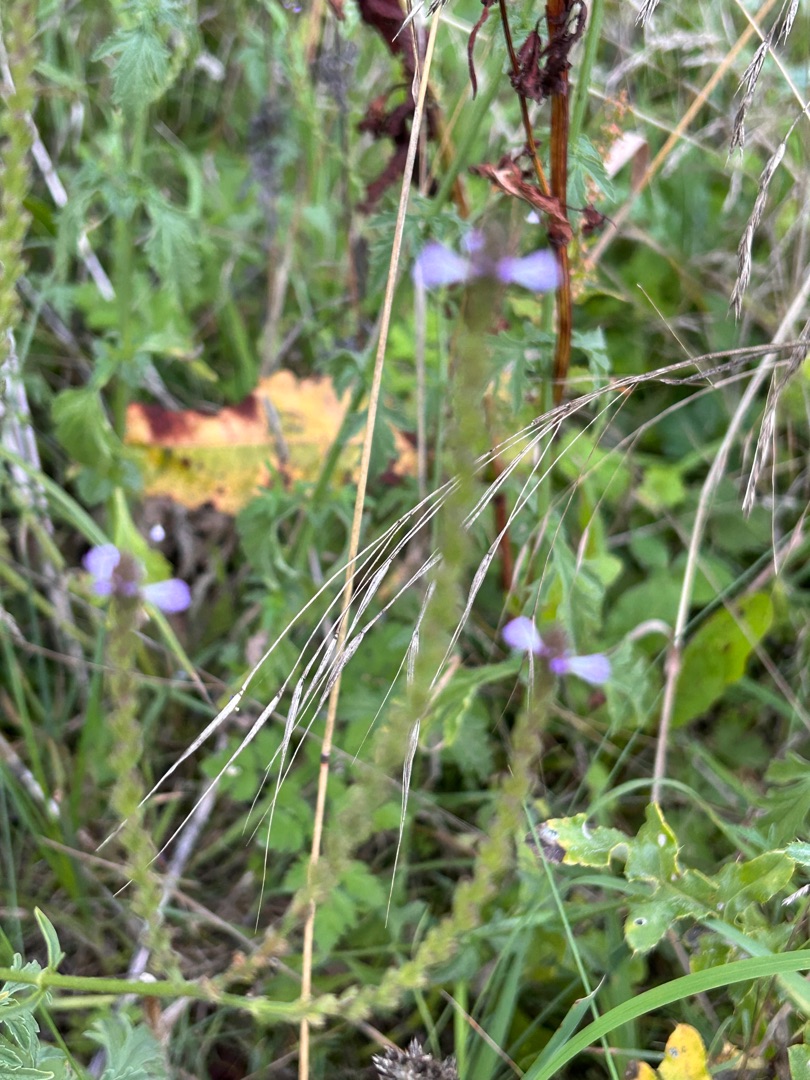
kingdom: Plantae
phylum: Tracheophyta
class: Magnoliopsida
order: Lamiales
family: Verbenaceae
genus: Verbena
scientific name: Verbena officinalis
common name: Læge-jernurt
